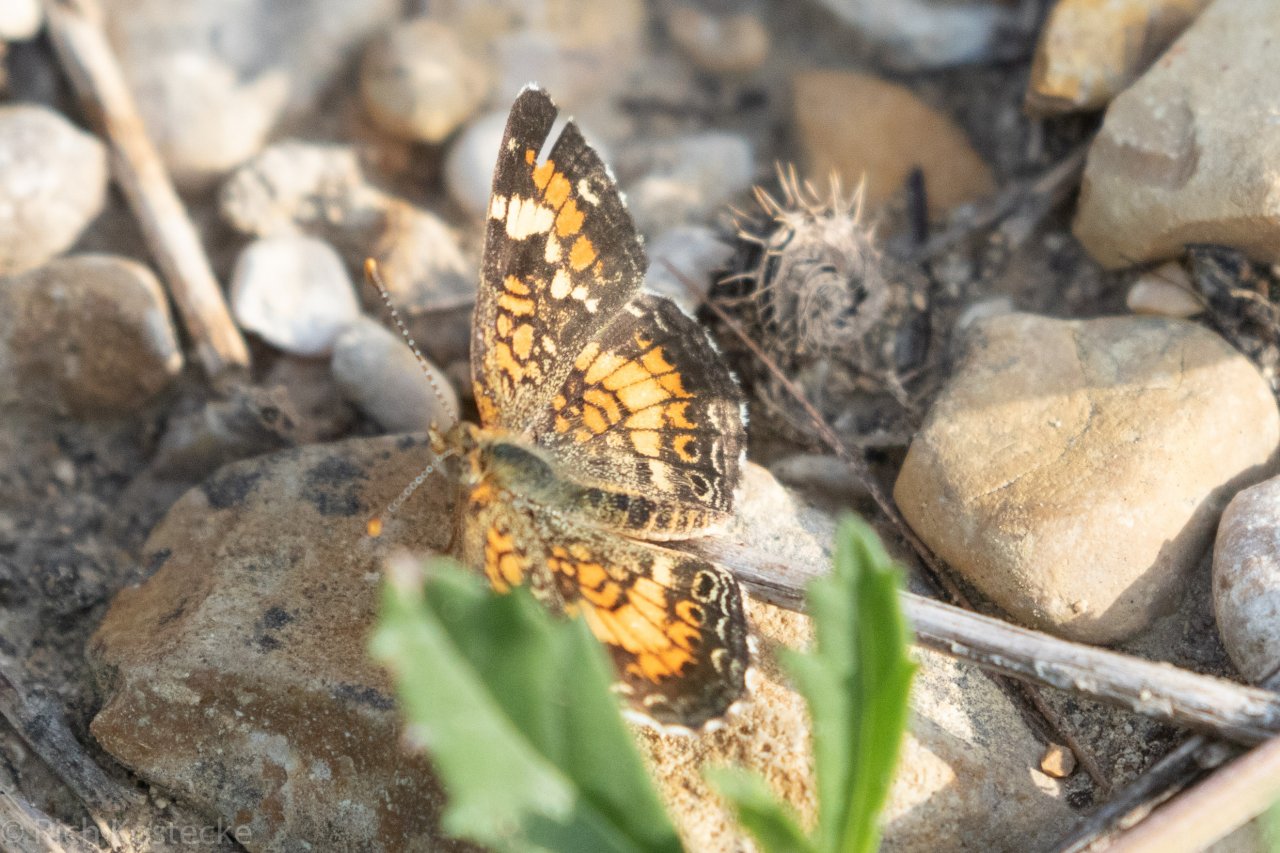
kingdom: Animalia
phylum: Arthropoda
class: Insecta
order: Lepidoptera
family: Nymphalidae
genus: Phyciodes
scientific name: Phyciodes phaon
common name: Phaon Crescent
